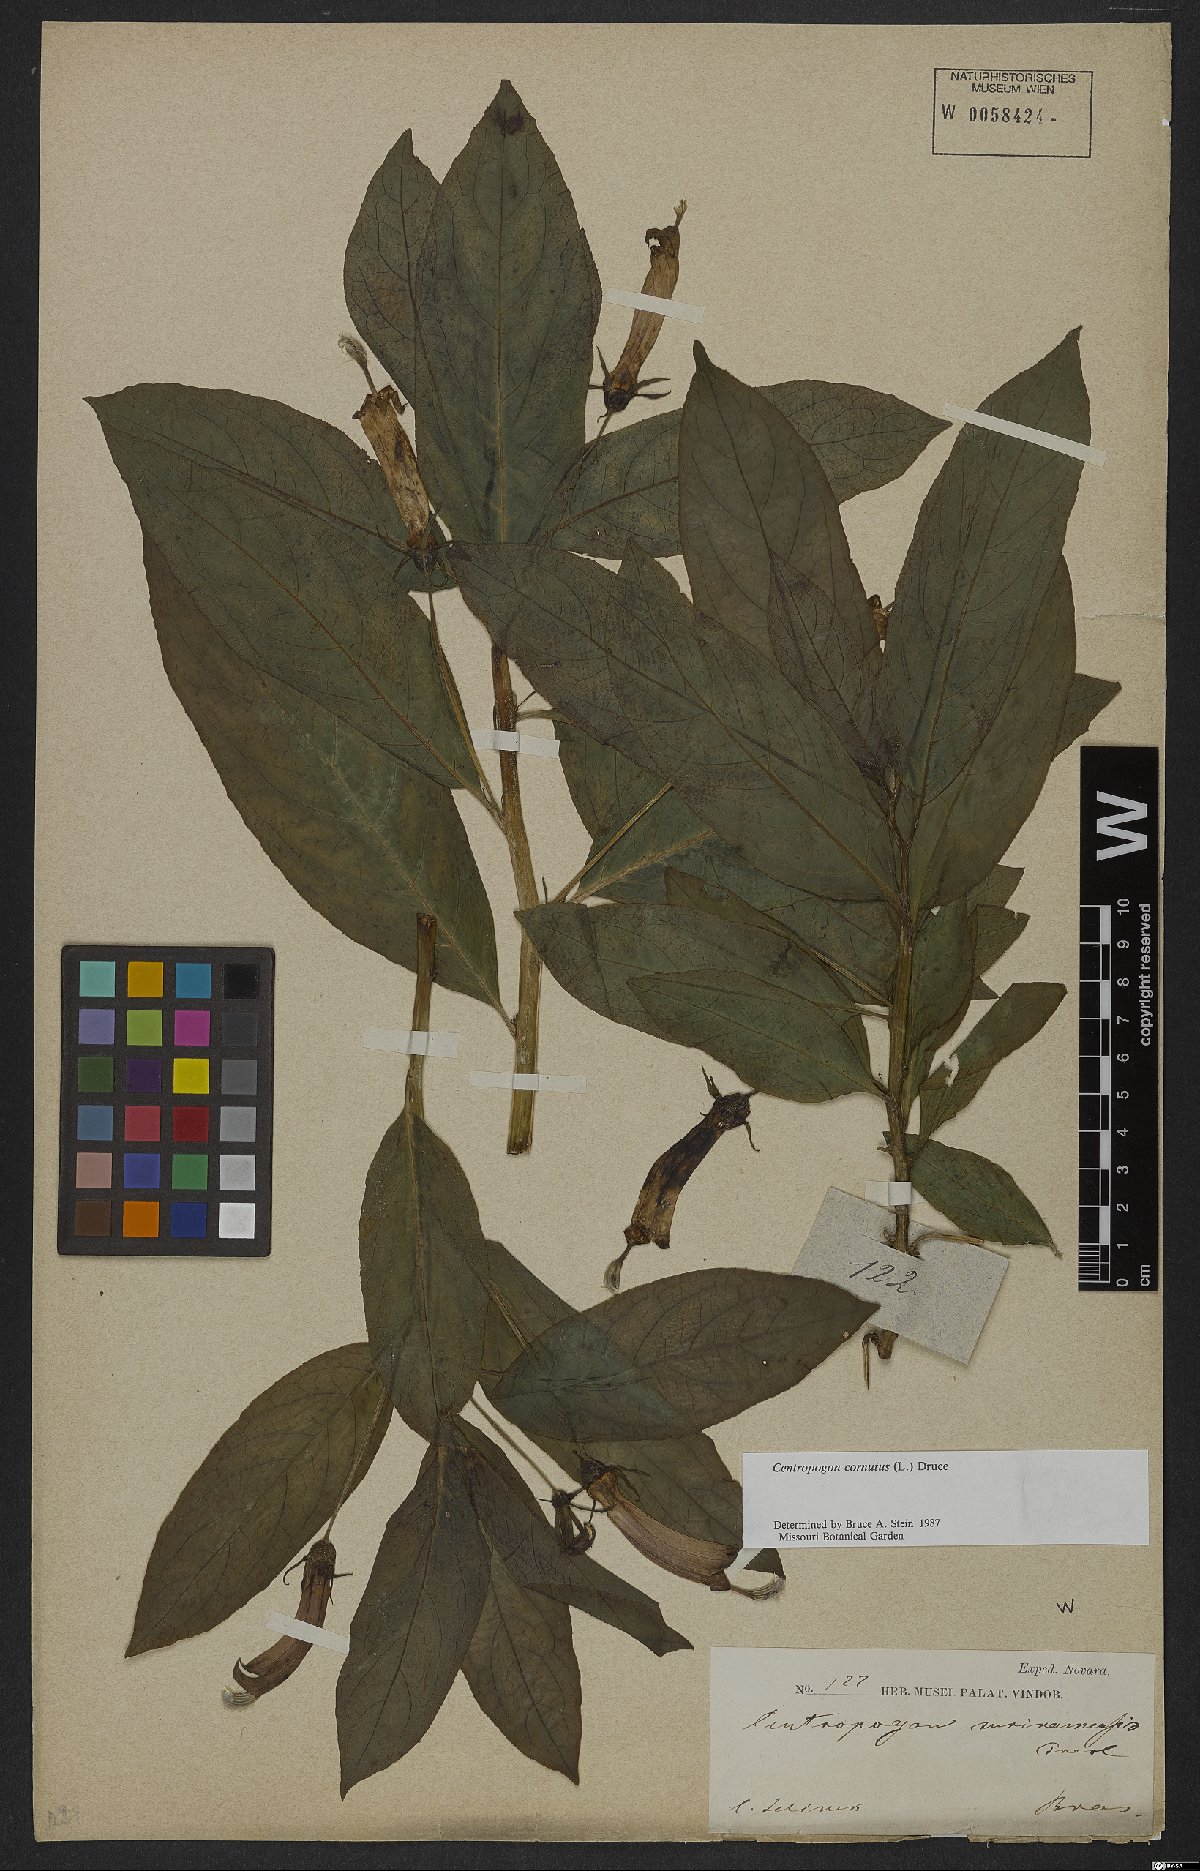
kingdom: Plantae
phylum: Tracheophyta
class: Magnoliopsida
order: Asterales
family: Campanulaceae
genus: Centropogon
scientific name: Centropogon cornutus
